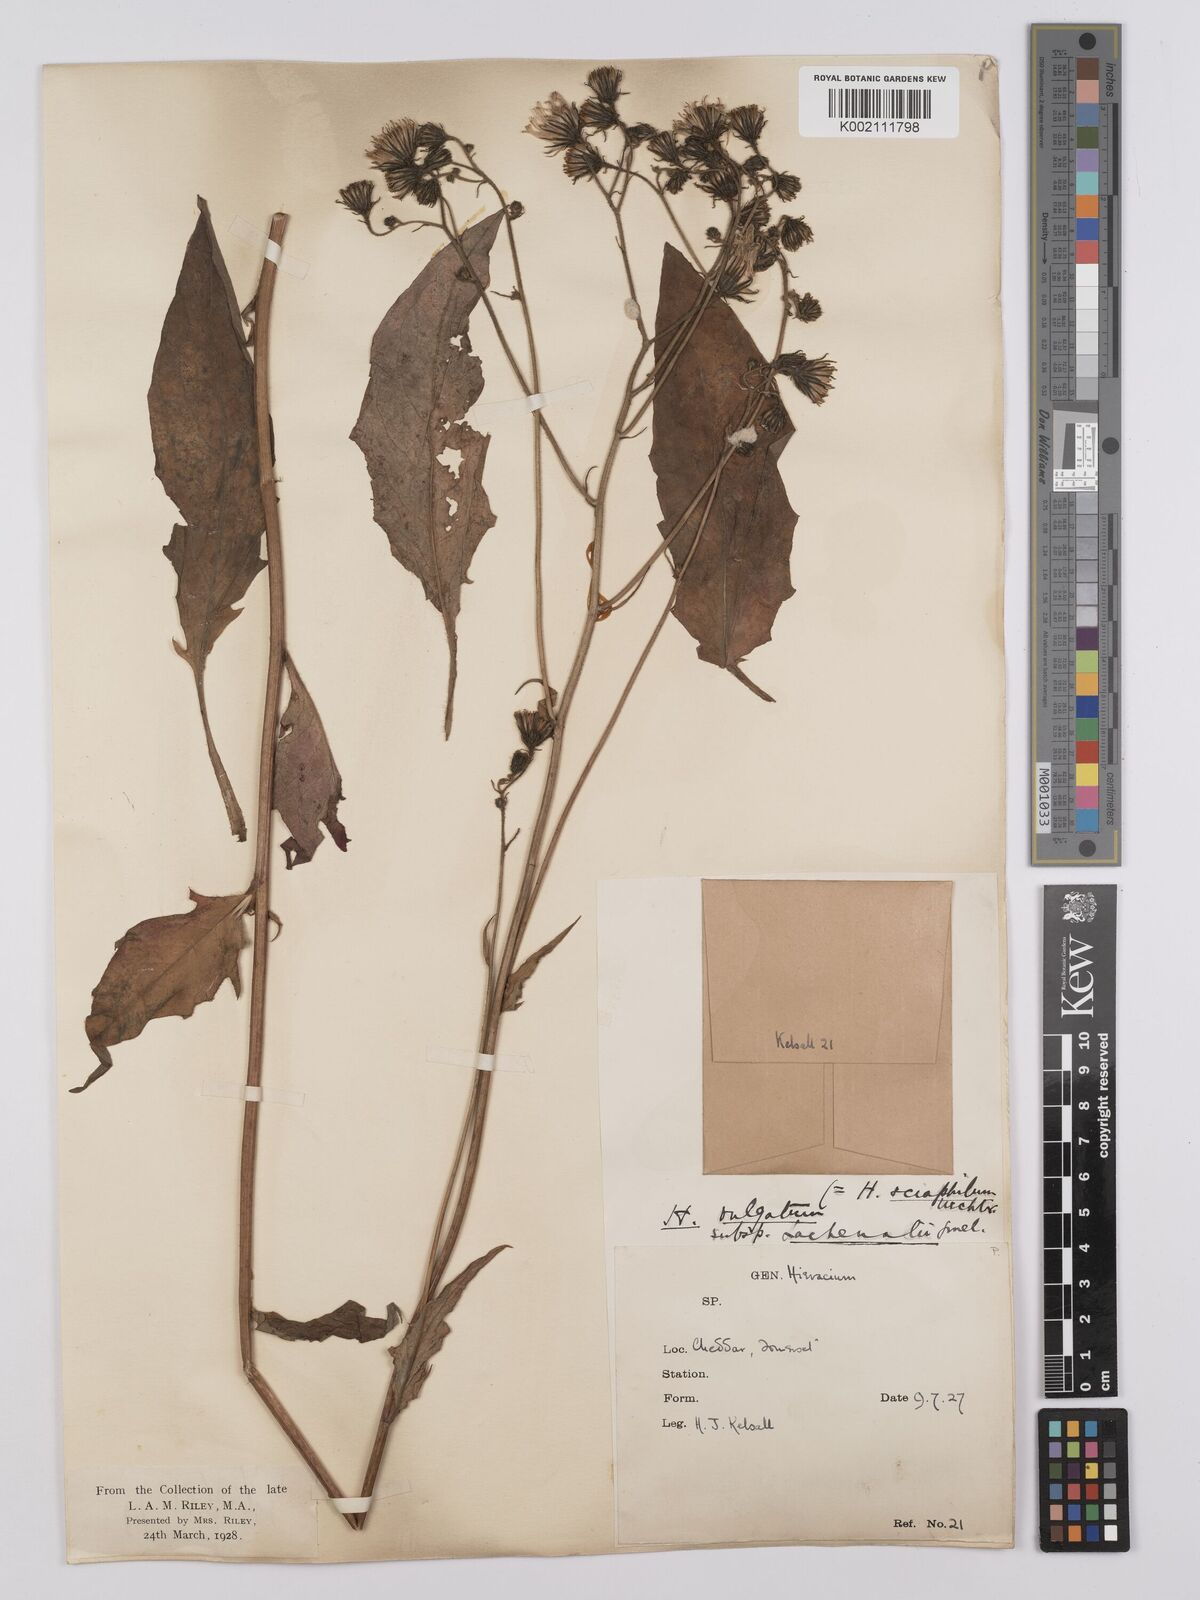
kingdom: Plantae
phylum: Tracheophyta
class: Magnoliopsida
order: Asterales
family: Asteraceae
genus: Hieracium
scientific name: Hieracium lachenalii
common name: Common hawkweed
